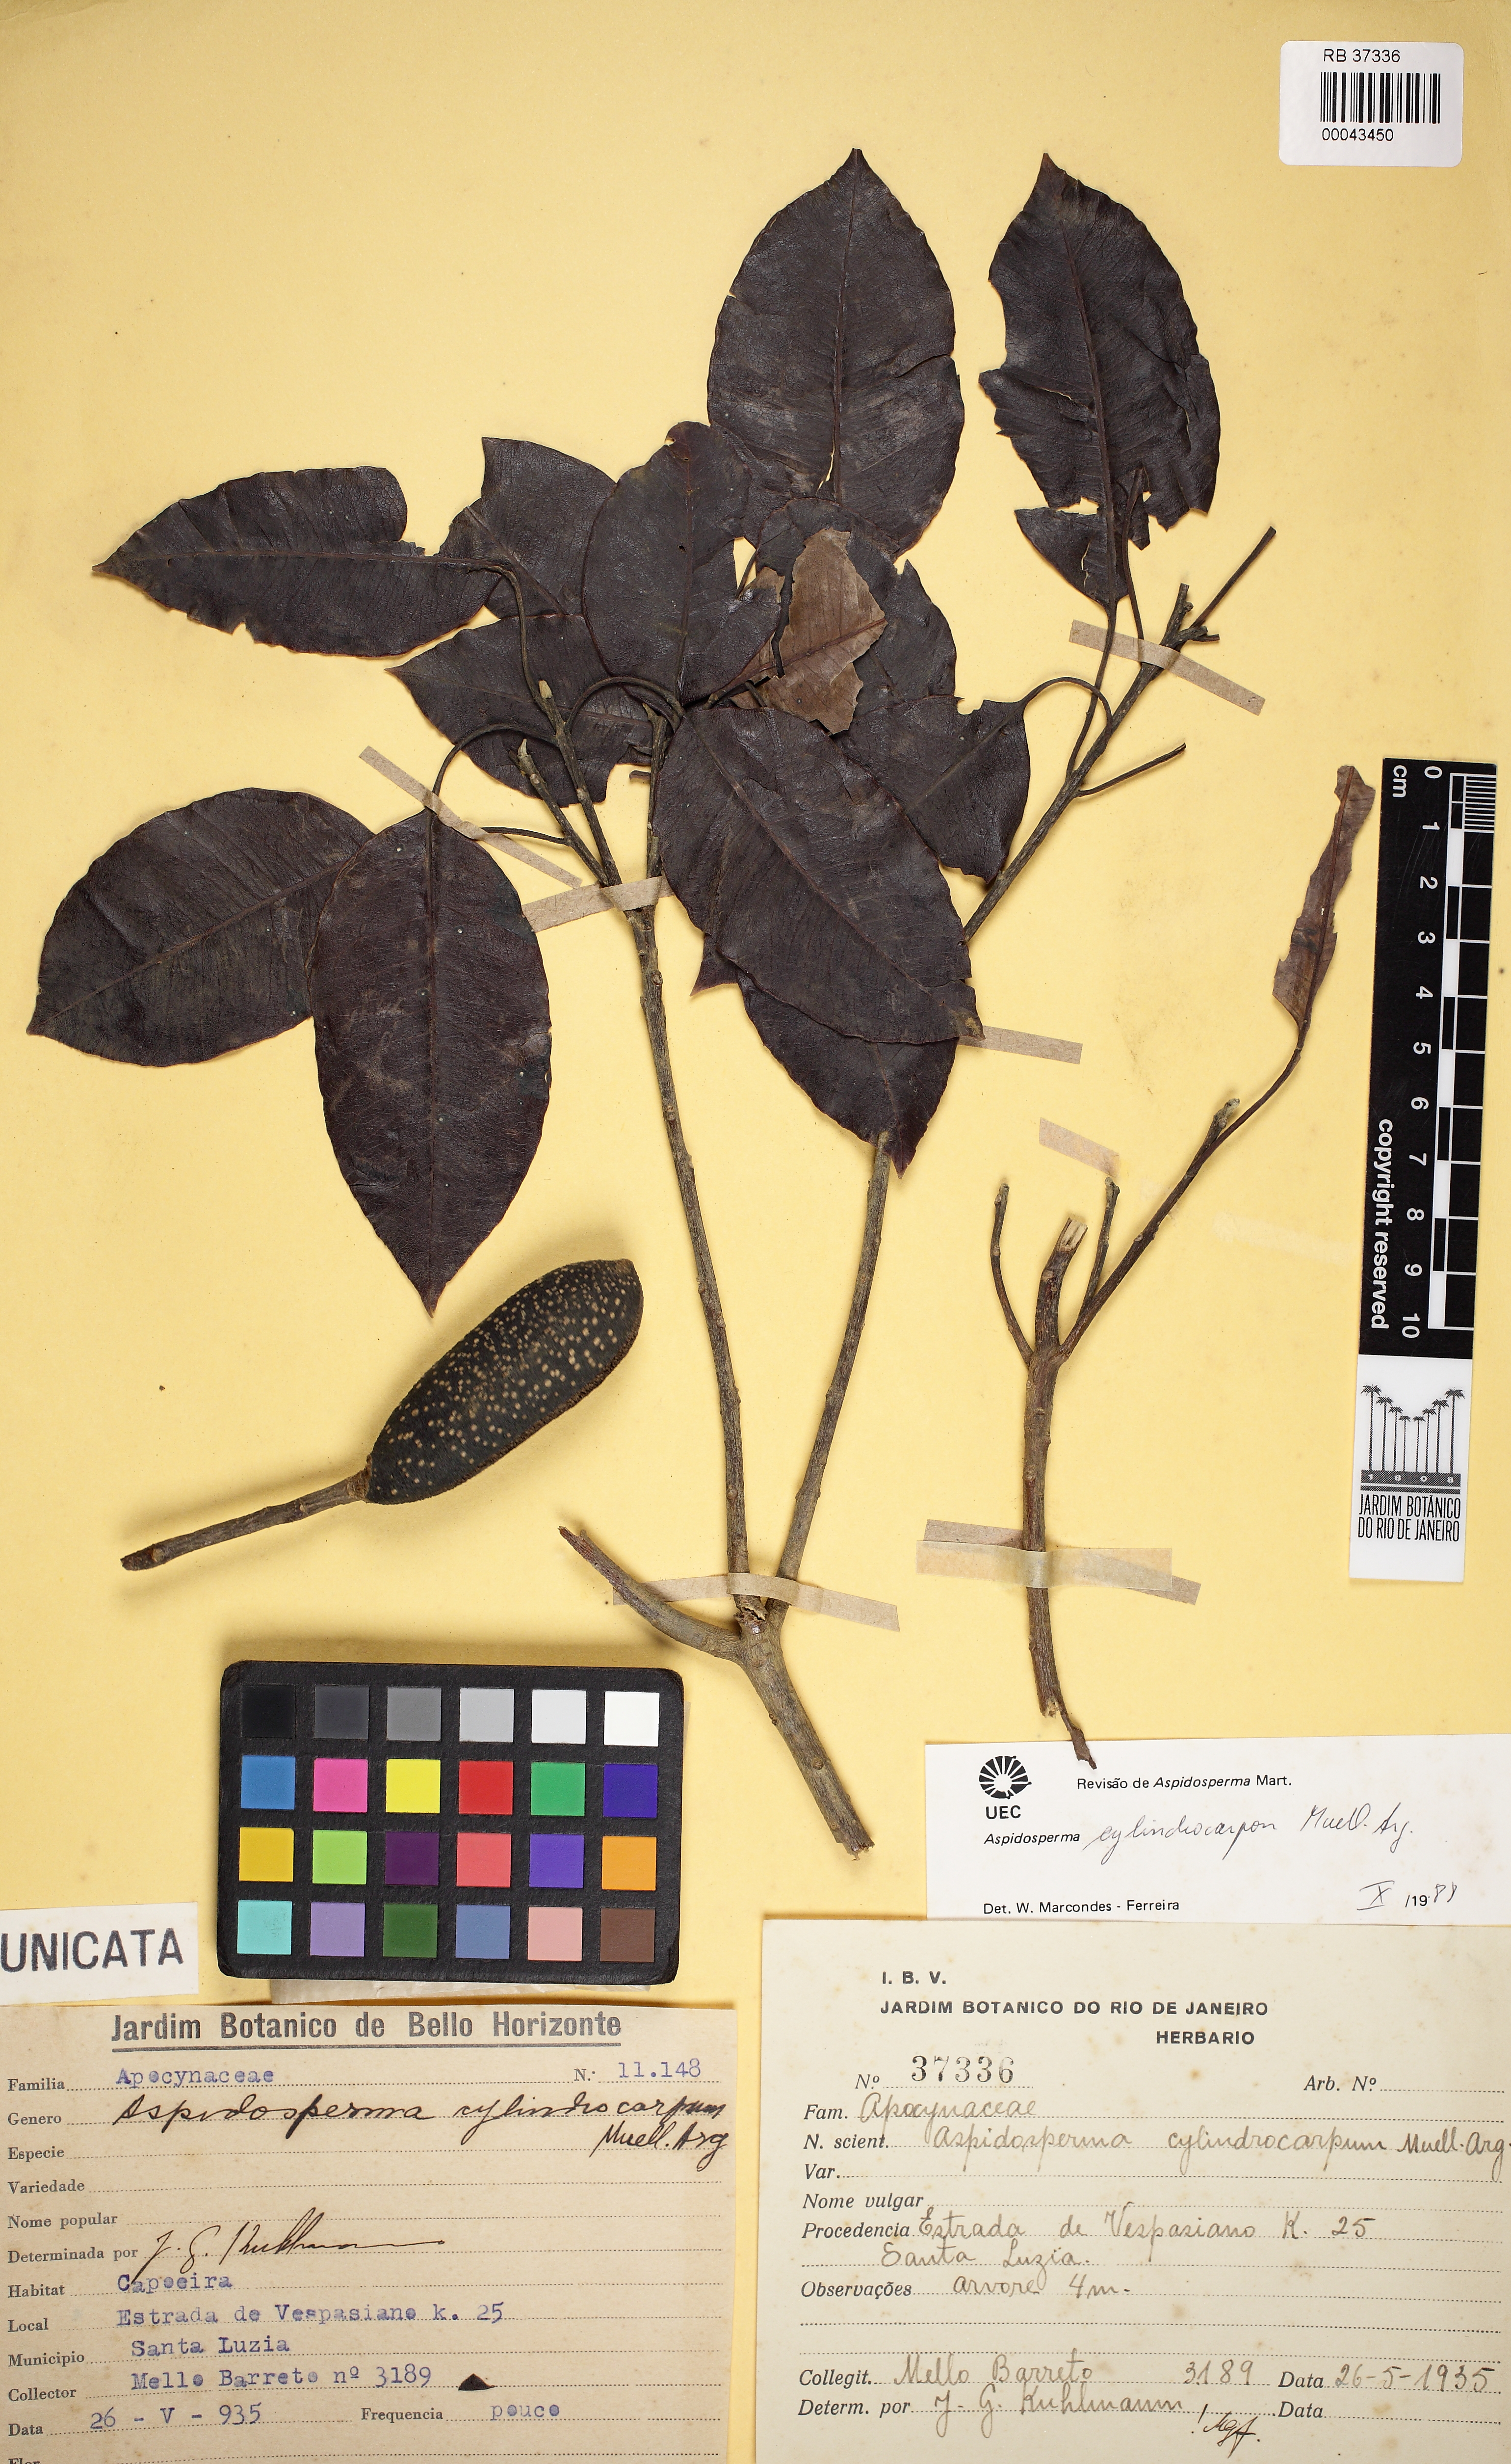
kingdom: Plantae
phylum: Tracheophyta
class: Magnoliopsida
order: Gentianales
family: Apocynaceae
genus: Aspidosperma
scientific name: Aspidosperma cylindrocarpon
